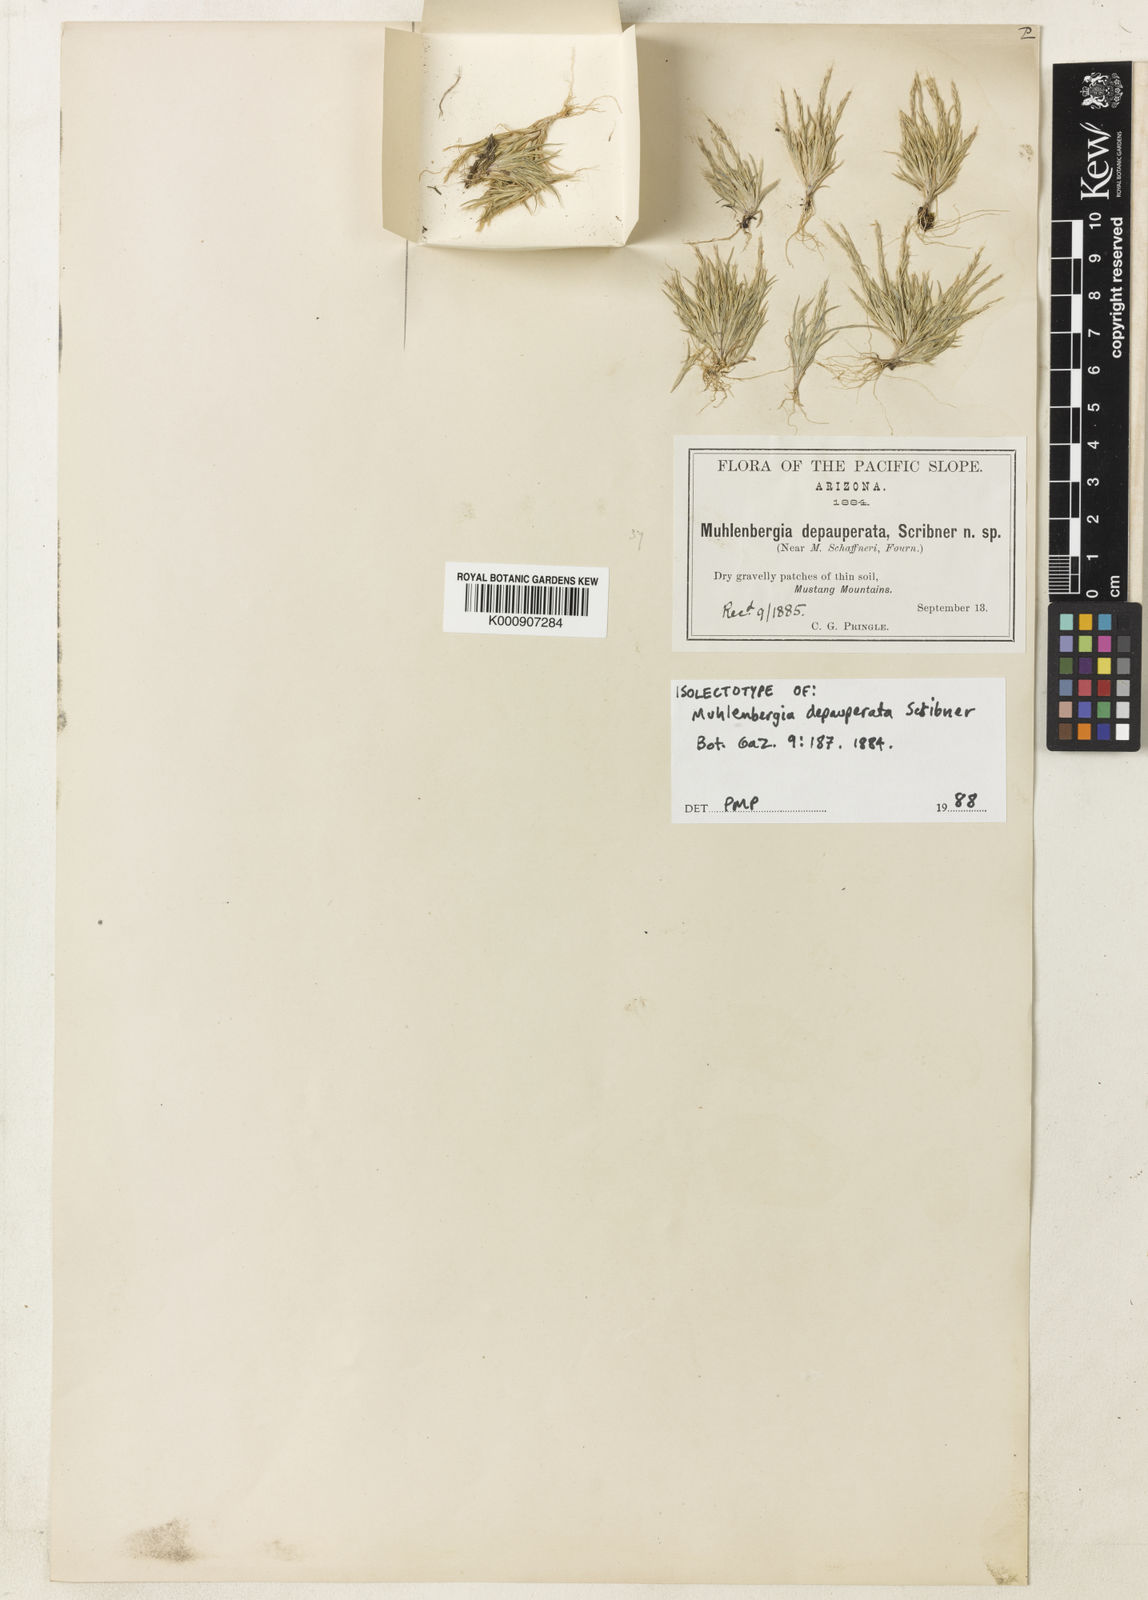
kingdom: Plantae
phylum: Tracheophyta
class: Liliopsida
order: Poales
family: Poaceae
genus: Muhlenbergia
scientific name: Muhlenbergia depauperata
